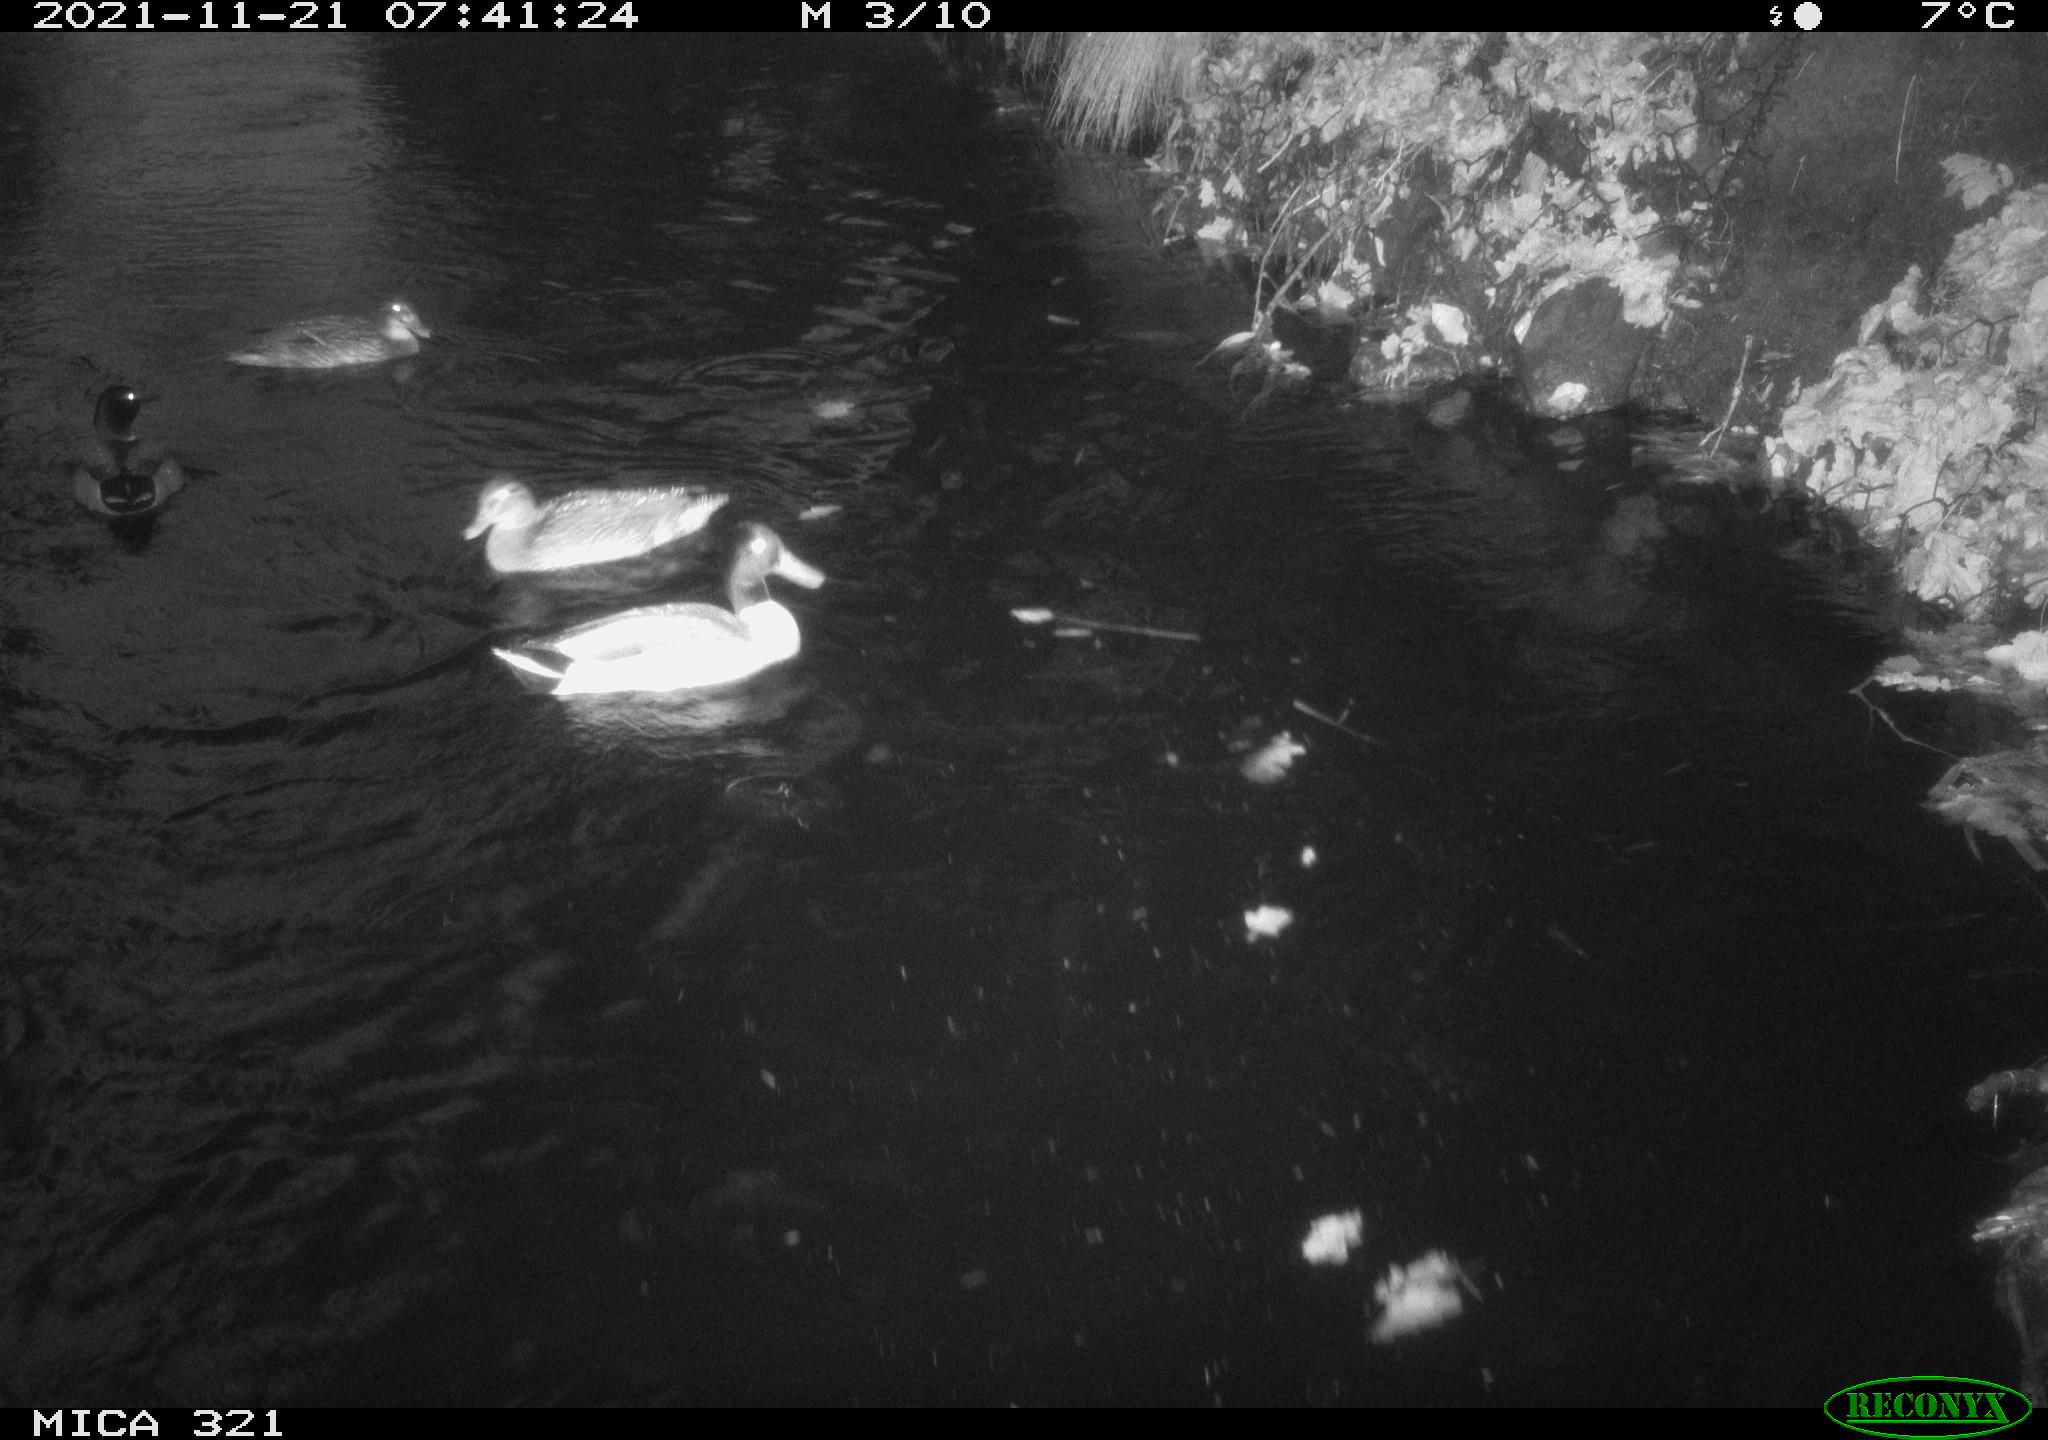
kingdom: Animalia
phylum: Chordata
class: Aves
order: Anseriformes
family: Anatidae
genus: Anas
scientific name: Anas platyrhynchos
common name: Mallard
